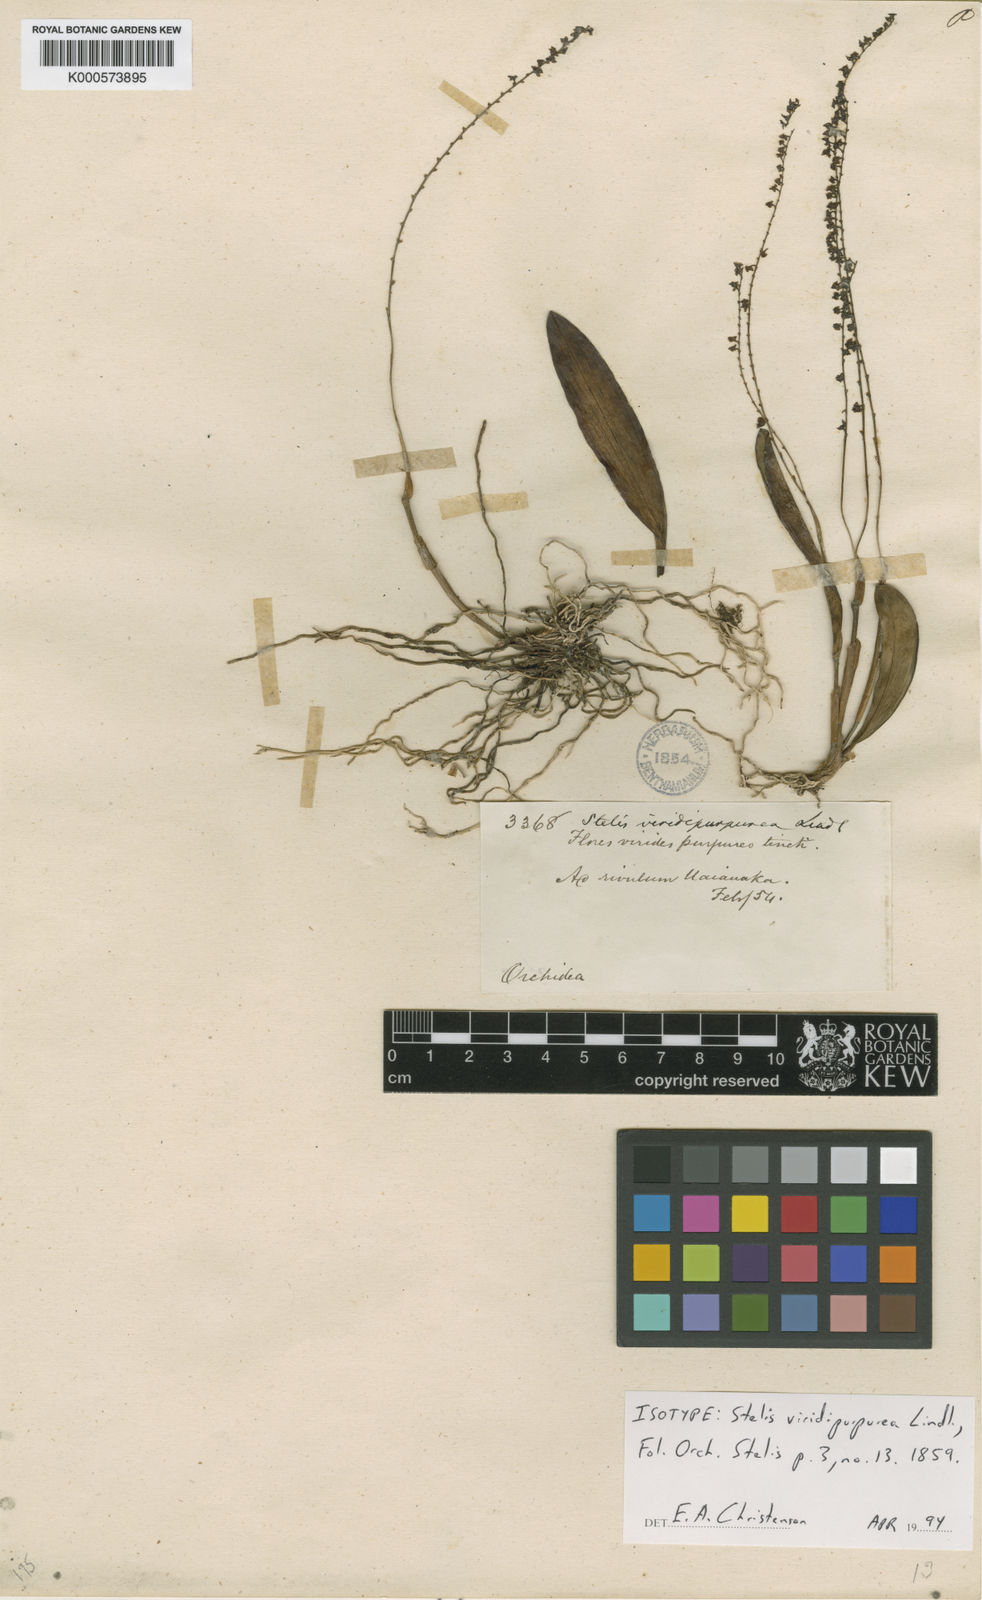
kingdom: Plantae
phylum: Tracheophyta
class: Liliopsida
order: Asparagales
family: Orchidaceae
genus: Stelis
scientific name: Stelis papaquerensis
